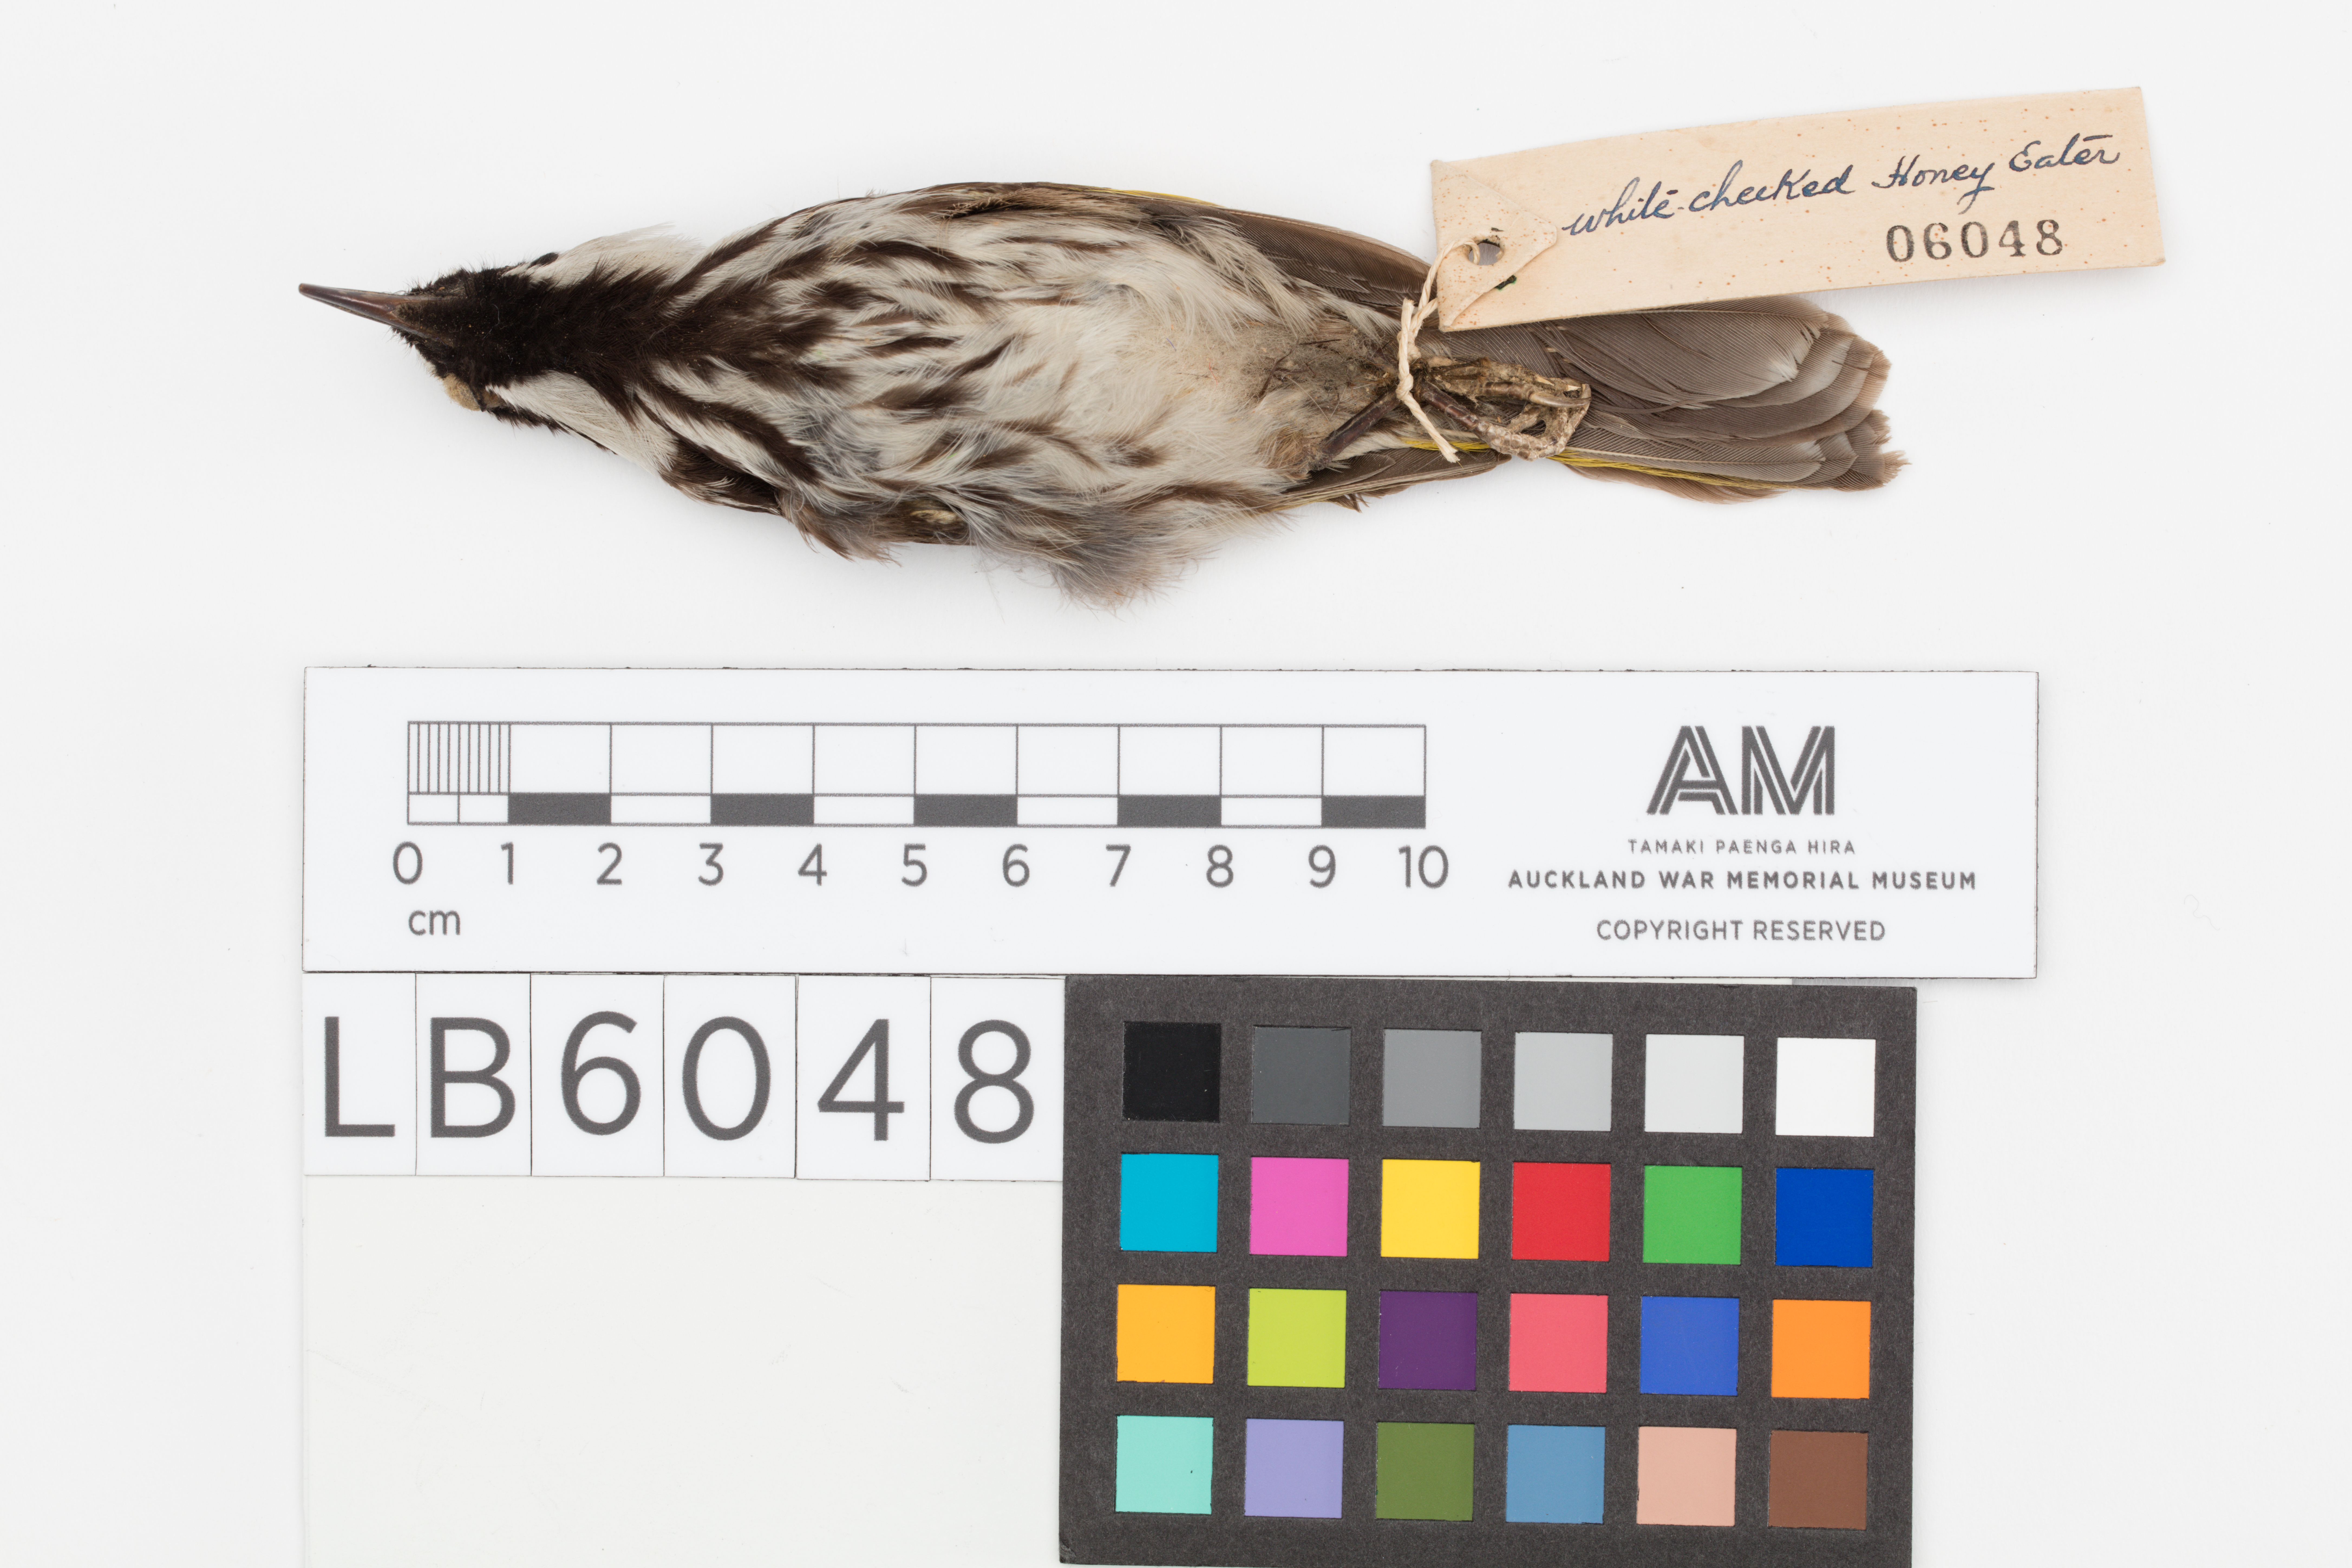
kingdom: Animalia
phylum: Chordata
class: Aves
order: Passeriformes
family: Meliphagidae
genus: Phylidonyris
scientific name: Phylidonyris niger
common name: White-cheeked honeyeater
